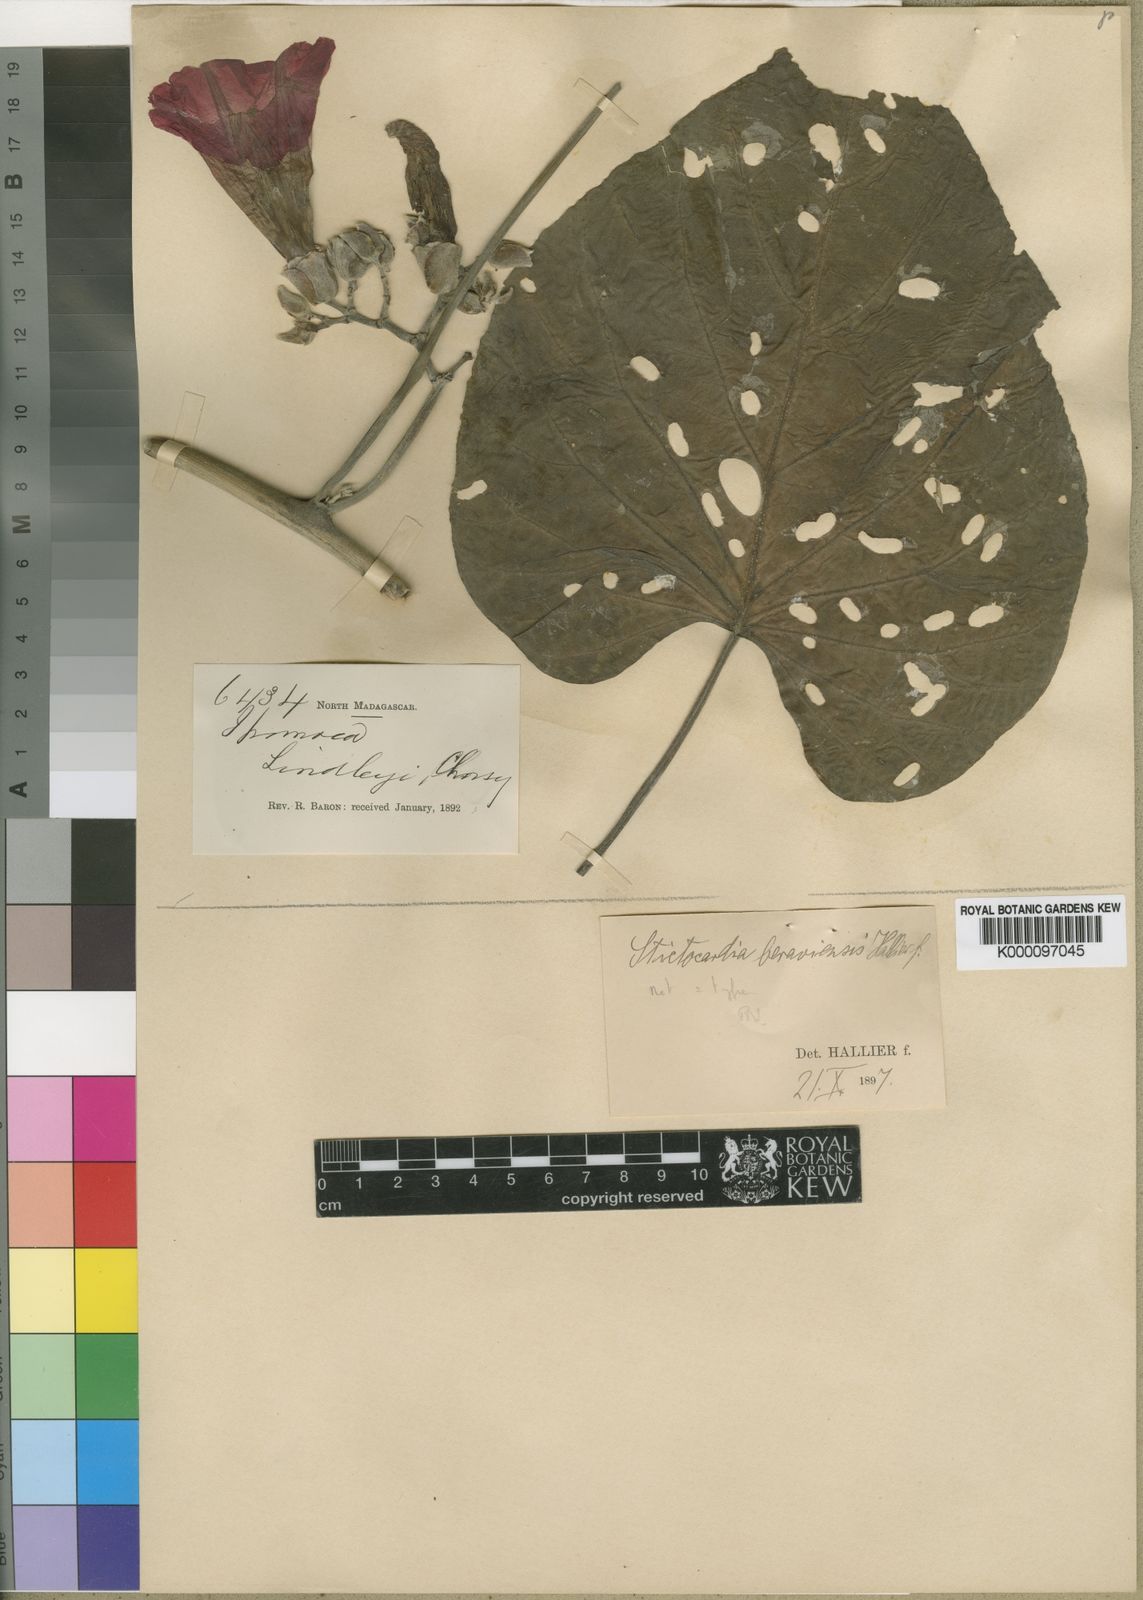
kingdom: Plantae
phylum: Tracheophyta
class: Magnoliopsida
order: Solanales
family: Convolvulaceae
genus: Stictocardia
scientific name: Stictocardia beraviensis
